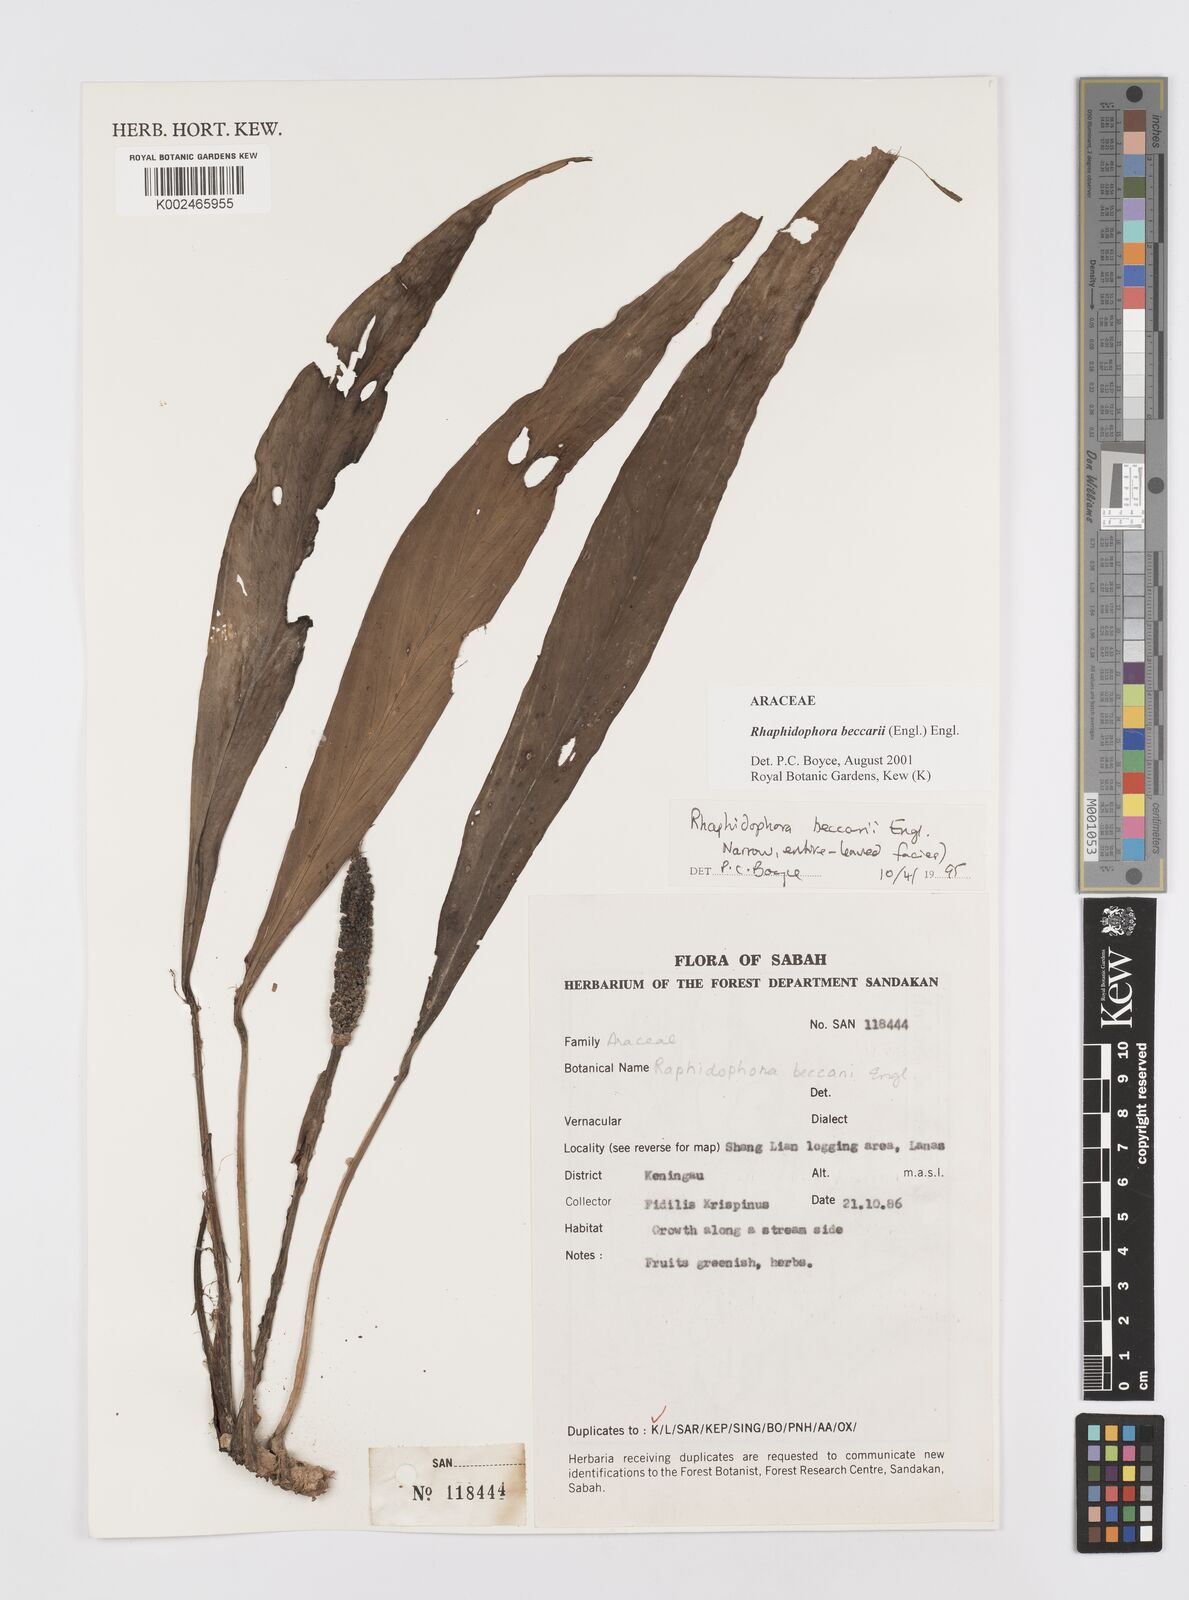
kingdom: Plantae
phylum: Tracheophyta
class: Liliopsida
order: Alismatales
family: Araceae
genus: Rhaphidophora
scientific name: Rhaphidophora beccarii
